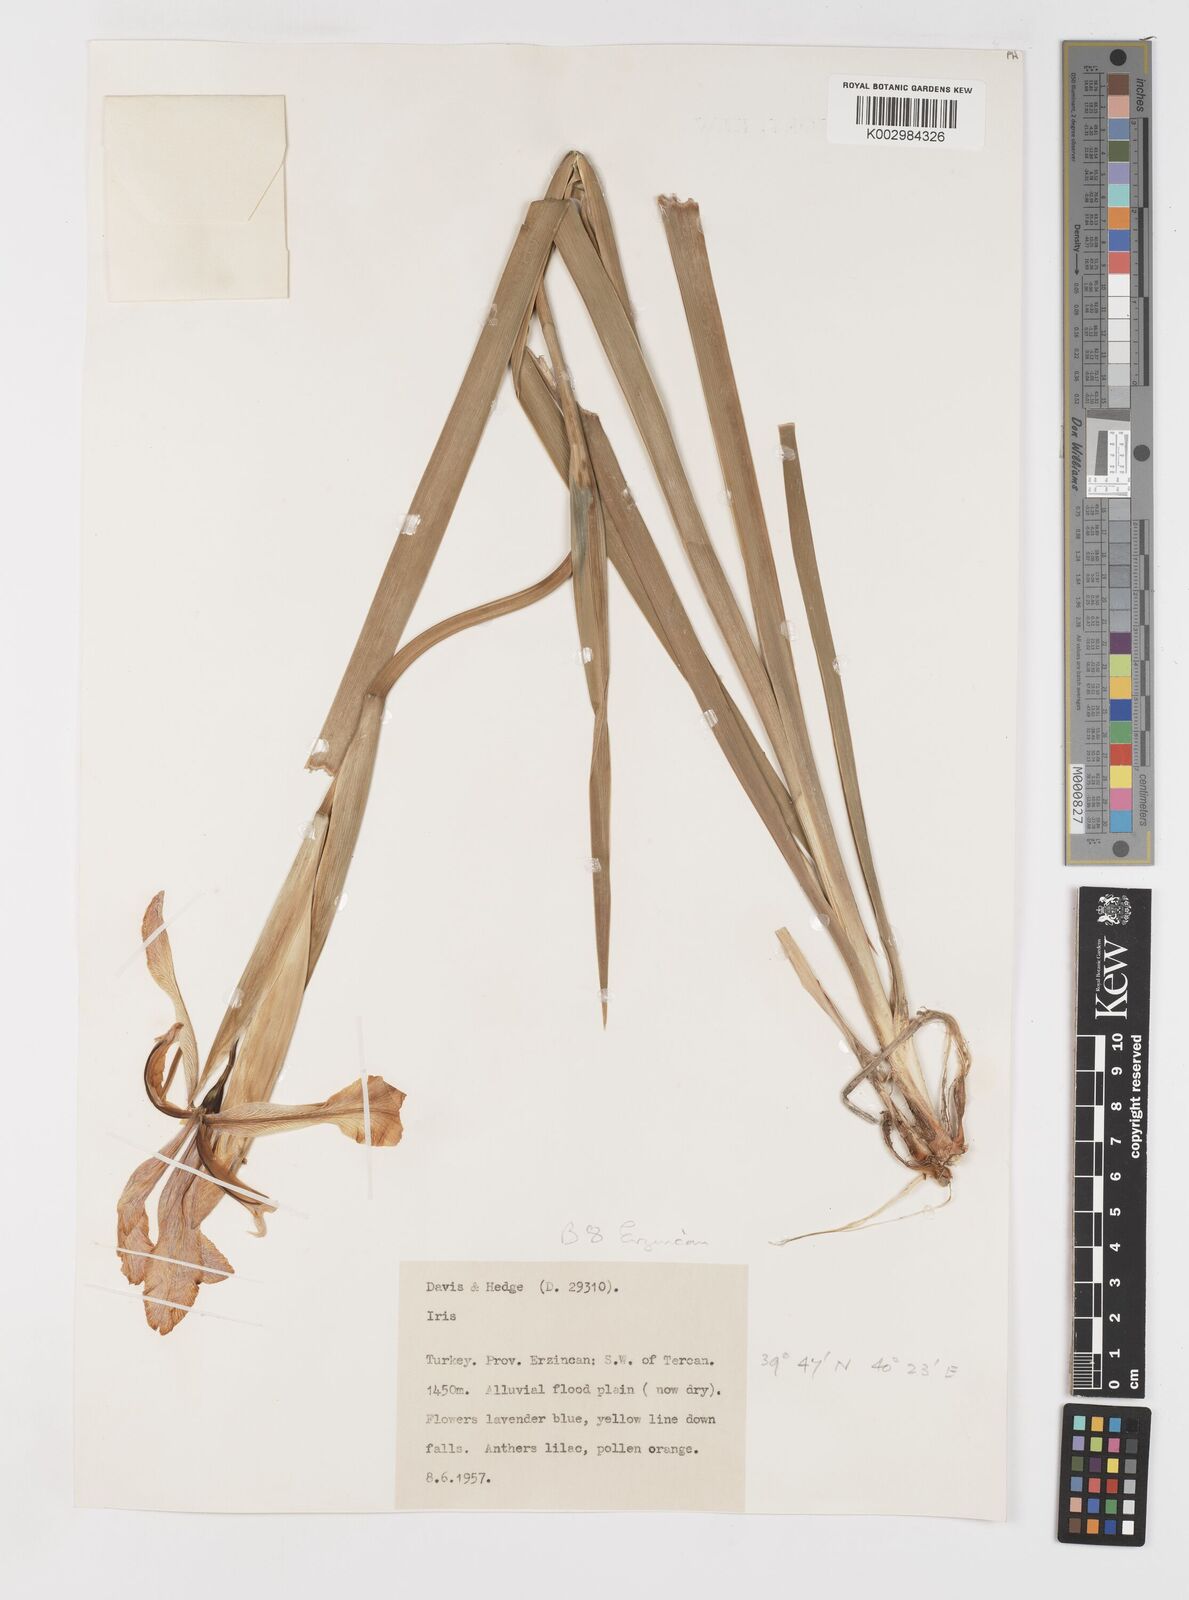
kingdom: Plantae
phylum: Tracheophyta
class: Liliopsida
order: Asparagales
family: Iridaceae
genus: Iris
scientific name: Iris spuria
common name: Blue iris
